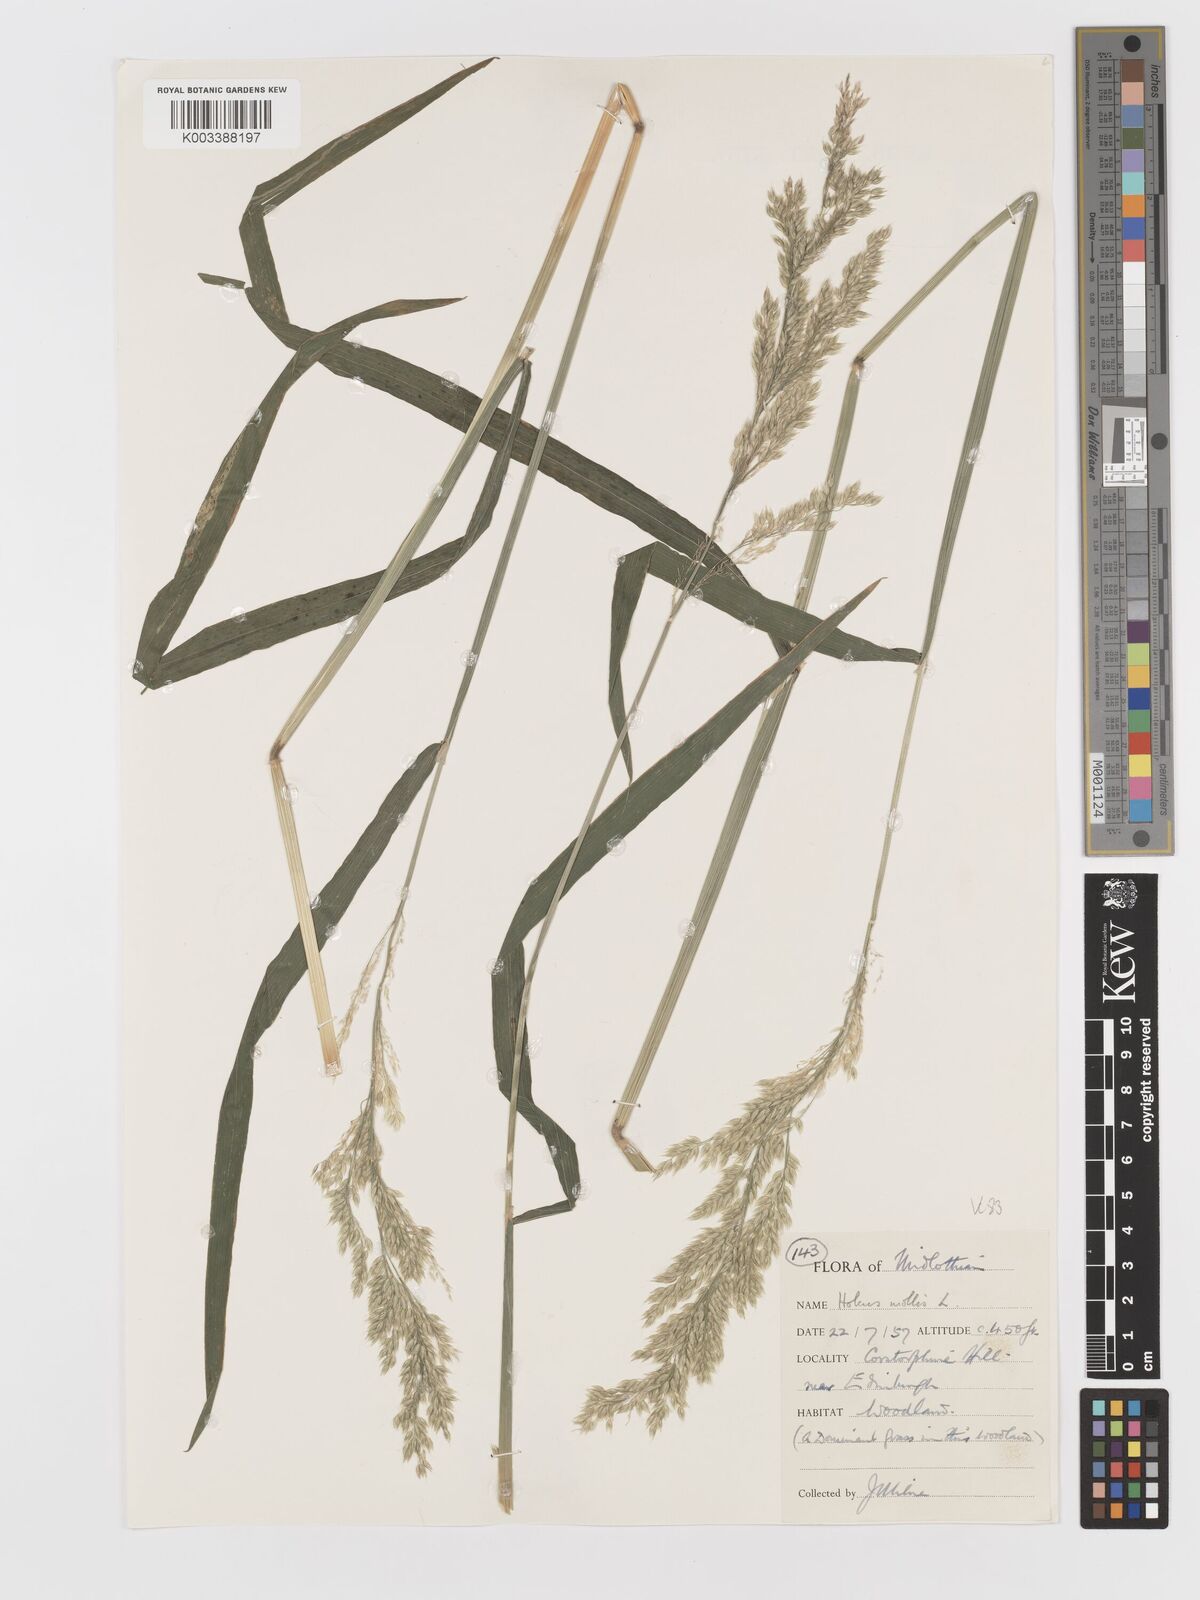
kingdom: Plantae
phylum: Tracheophyta
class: Liliopsida
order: Poales
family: Poaceae
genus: Holcus
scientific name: Holcus mollis
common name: Creeping velvetgrass
